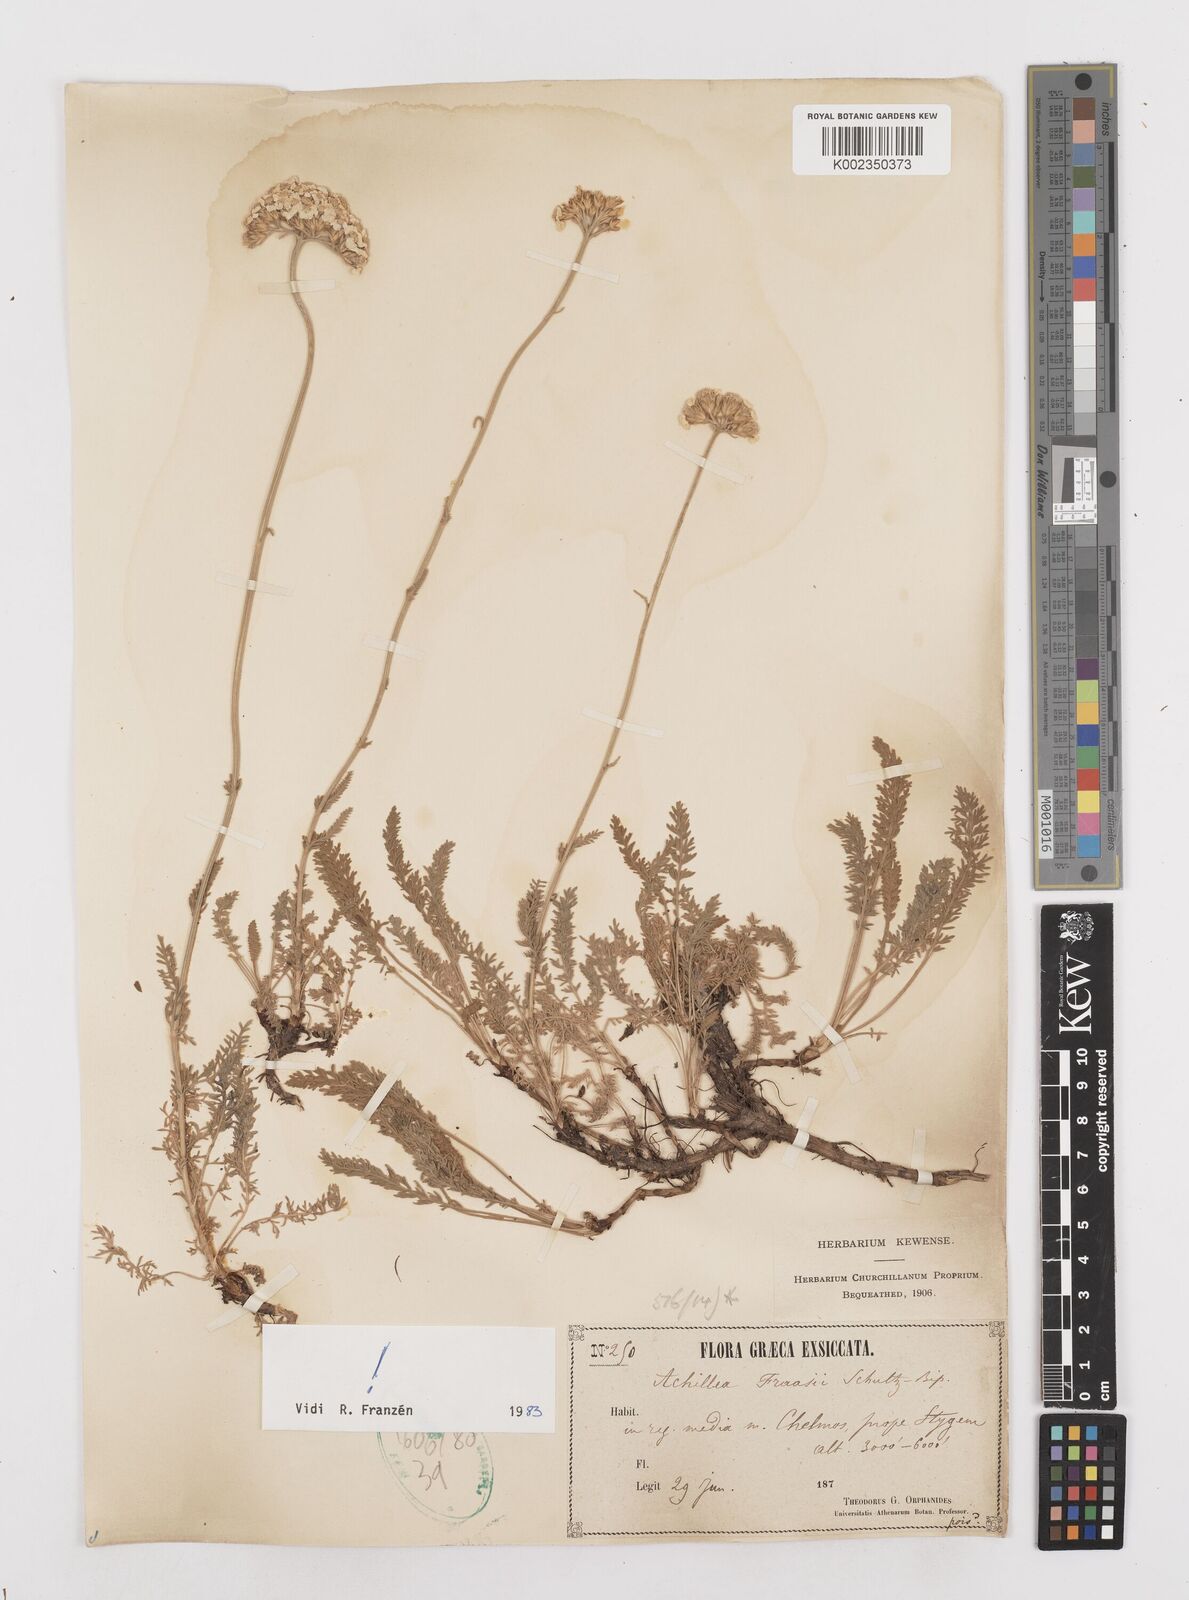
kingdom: Plantae
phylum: Tracheophyta
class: Magnoliopsida
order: Asterales
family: Asteraceae
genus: Achillea
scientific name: Achillea fraasii
